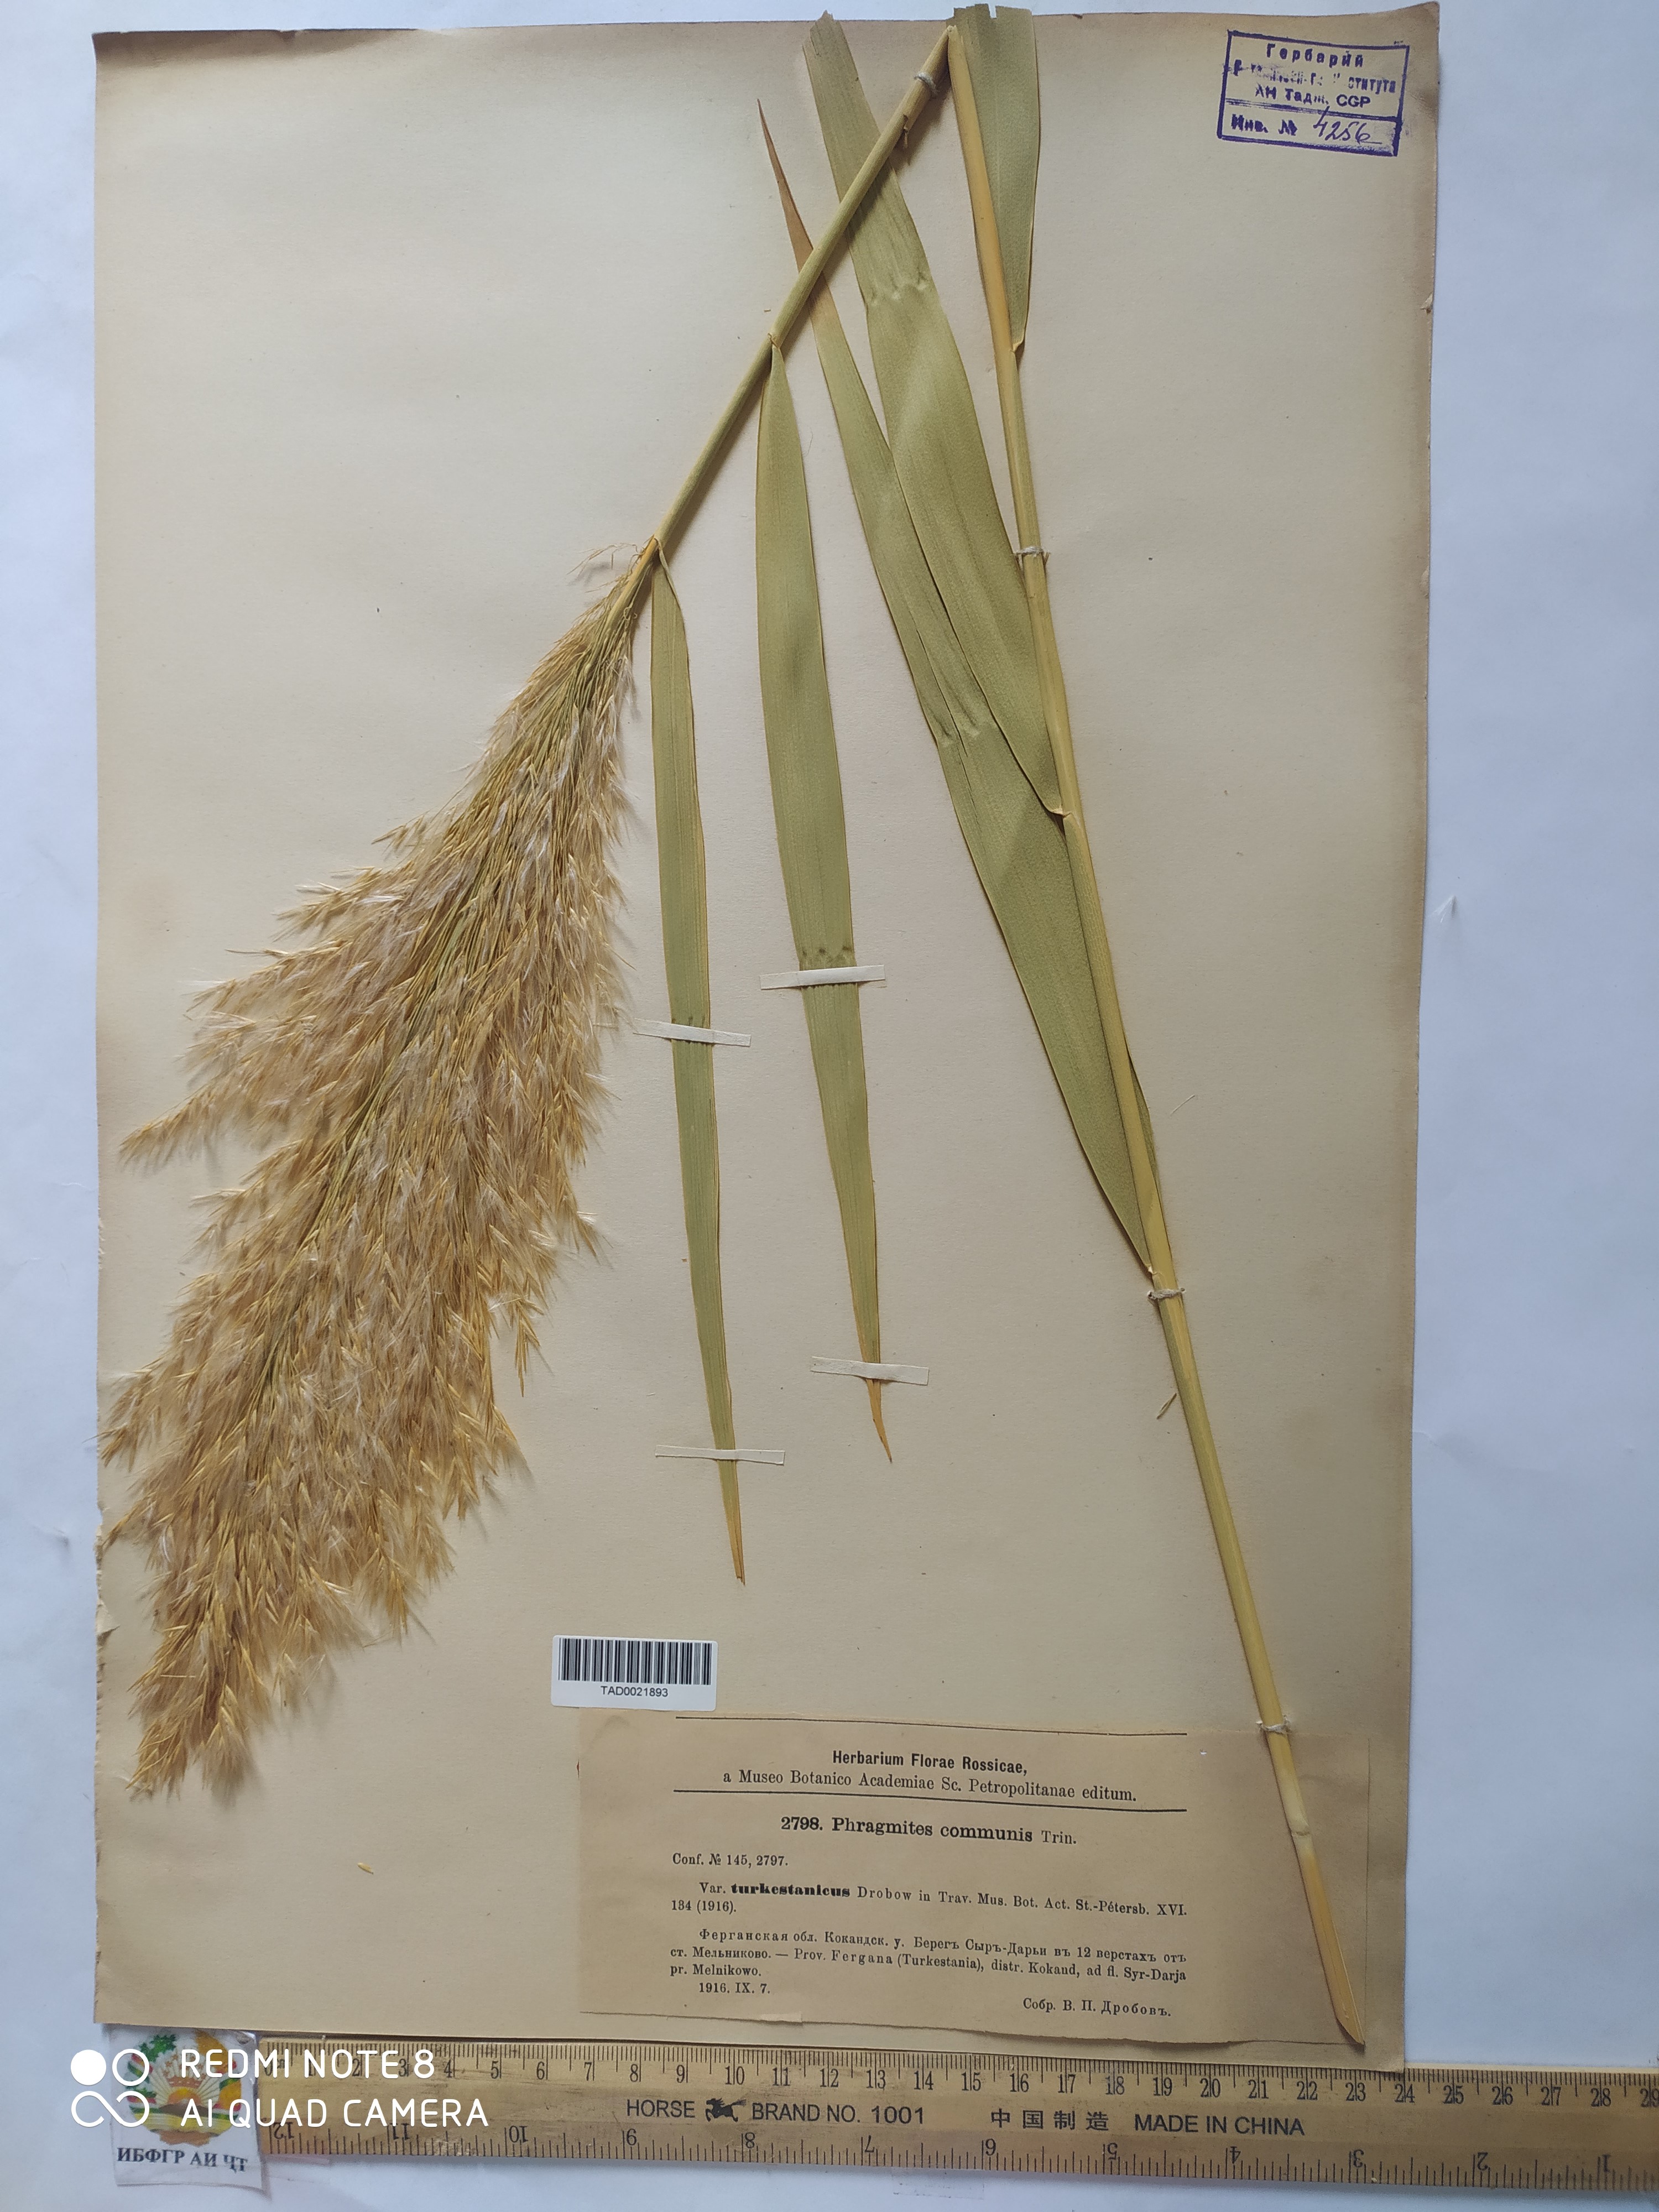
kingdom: Plantae
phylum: Tracheophyta
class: Liliopsida
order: Poales
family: Poaceae
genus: Phragmites
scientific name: Phragmites australis
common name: Common reed
